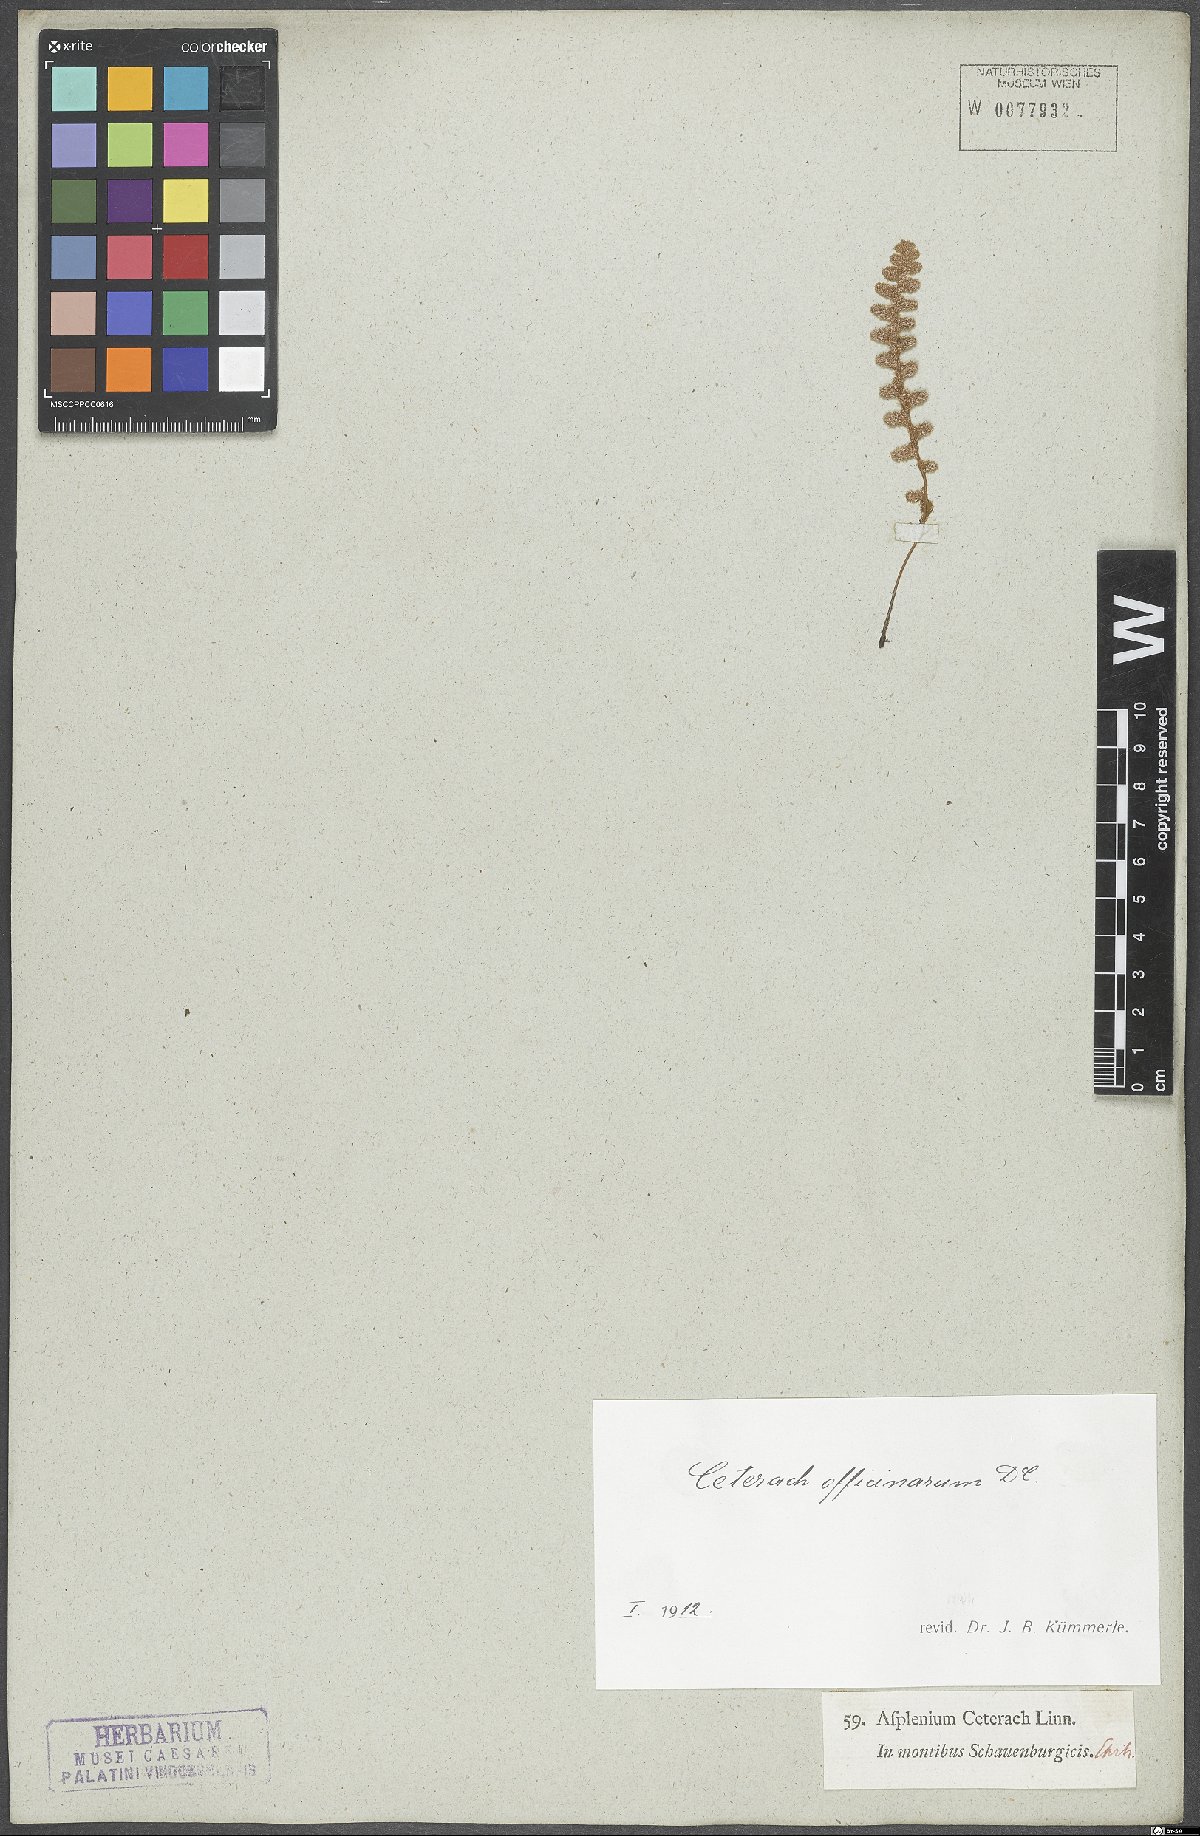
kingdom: Plantae
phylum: Tracheophyta
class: Polypodiopsida
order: Polypodiales
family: Aspleniaceae
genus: Asplenium
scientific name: Asplenium ceterach
